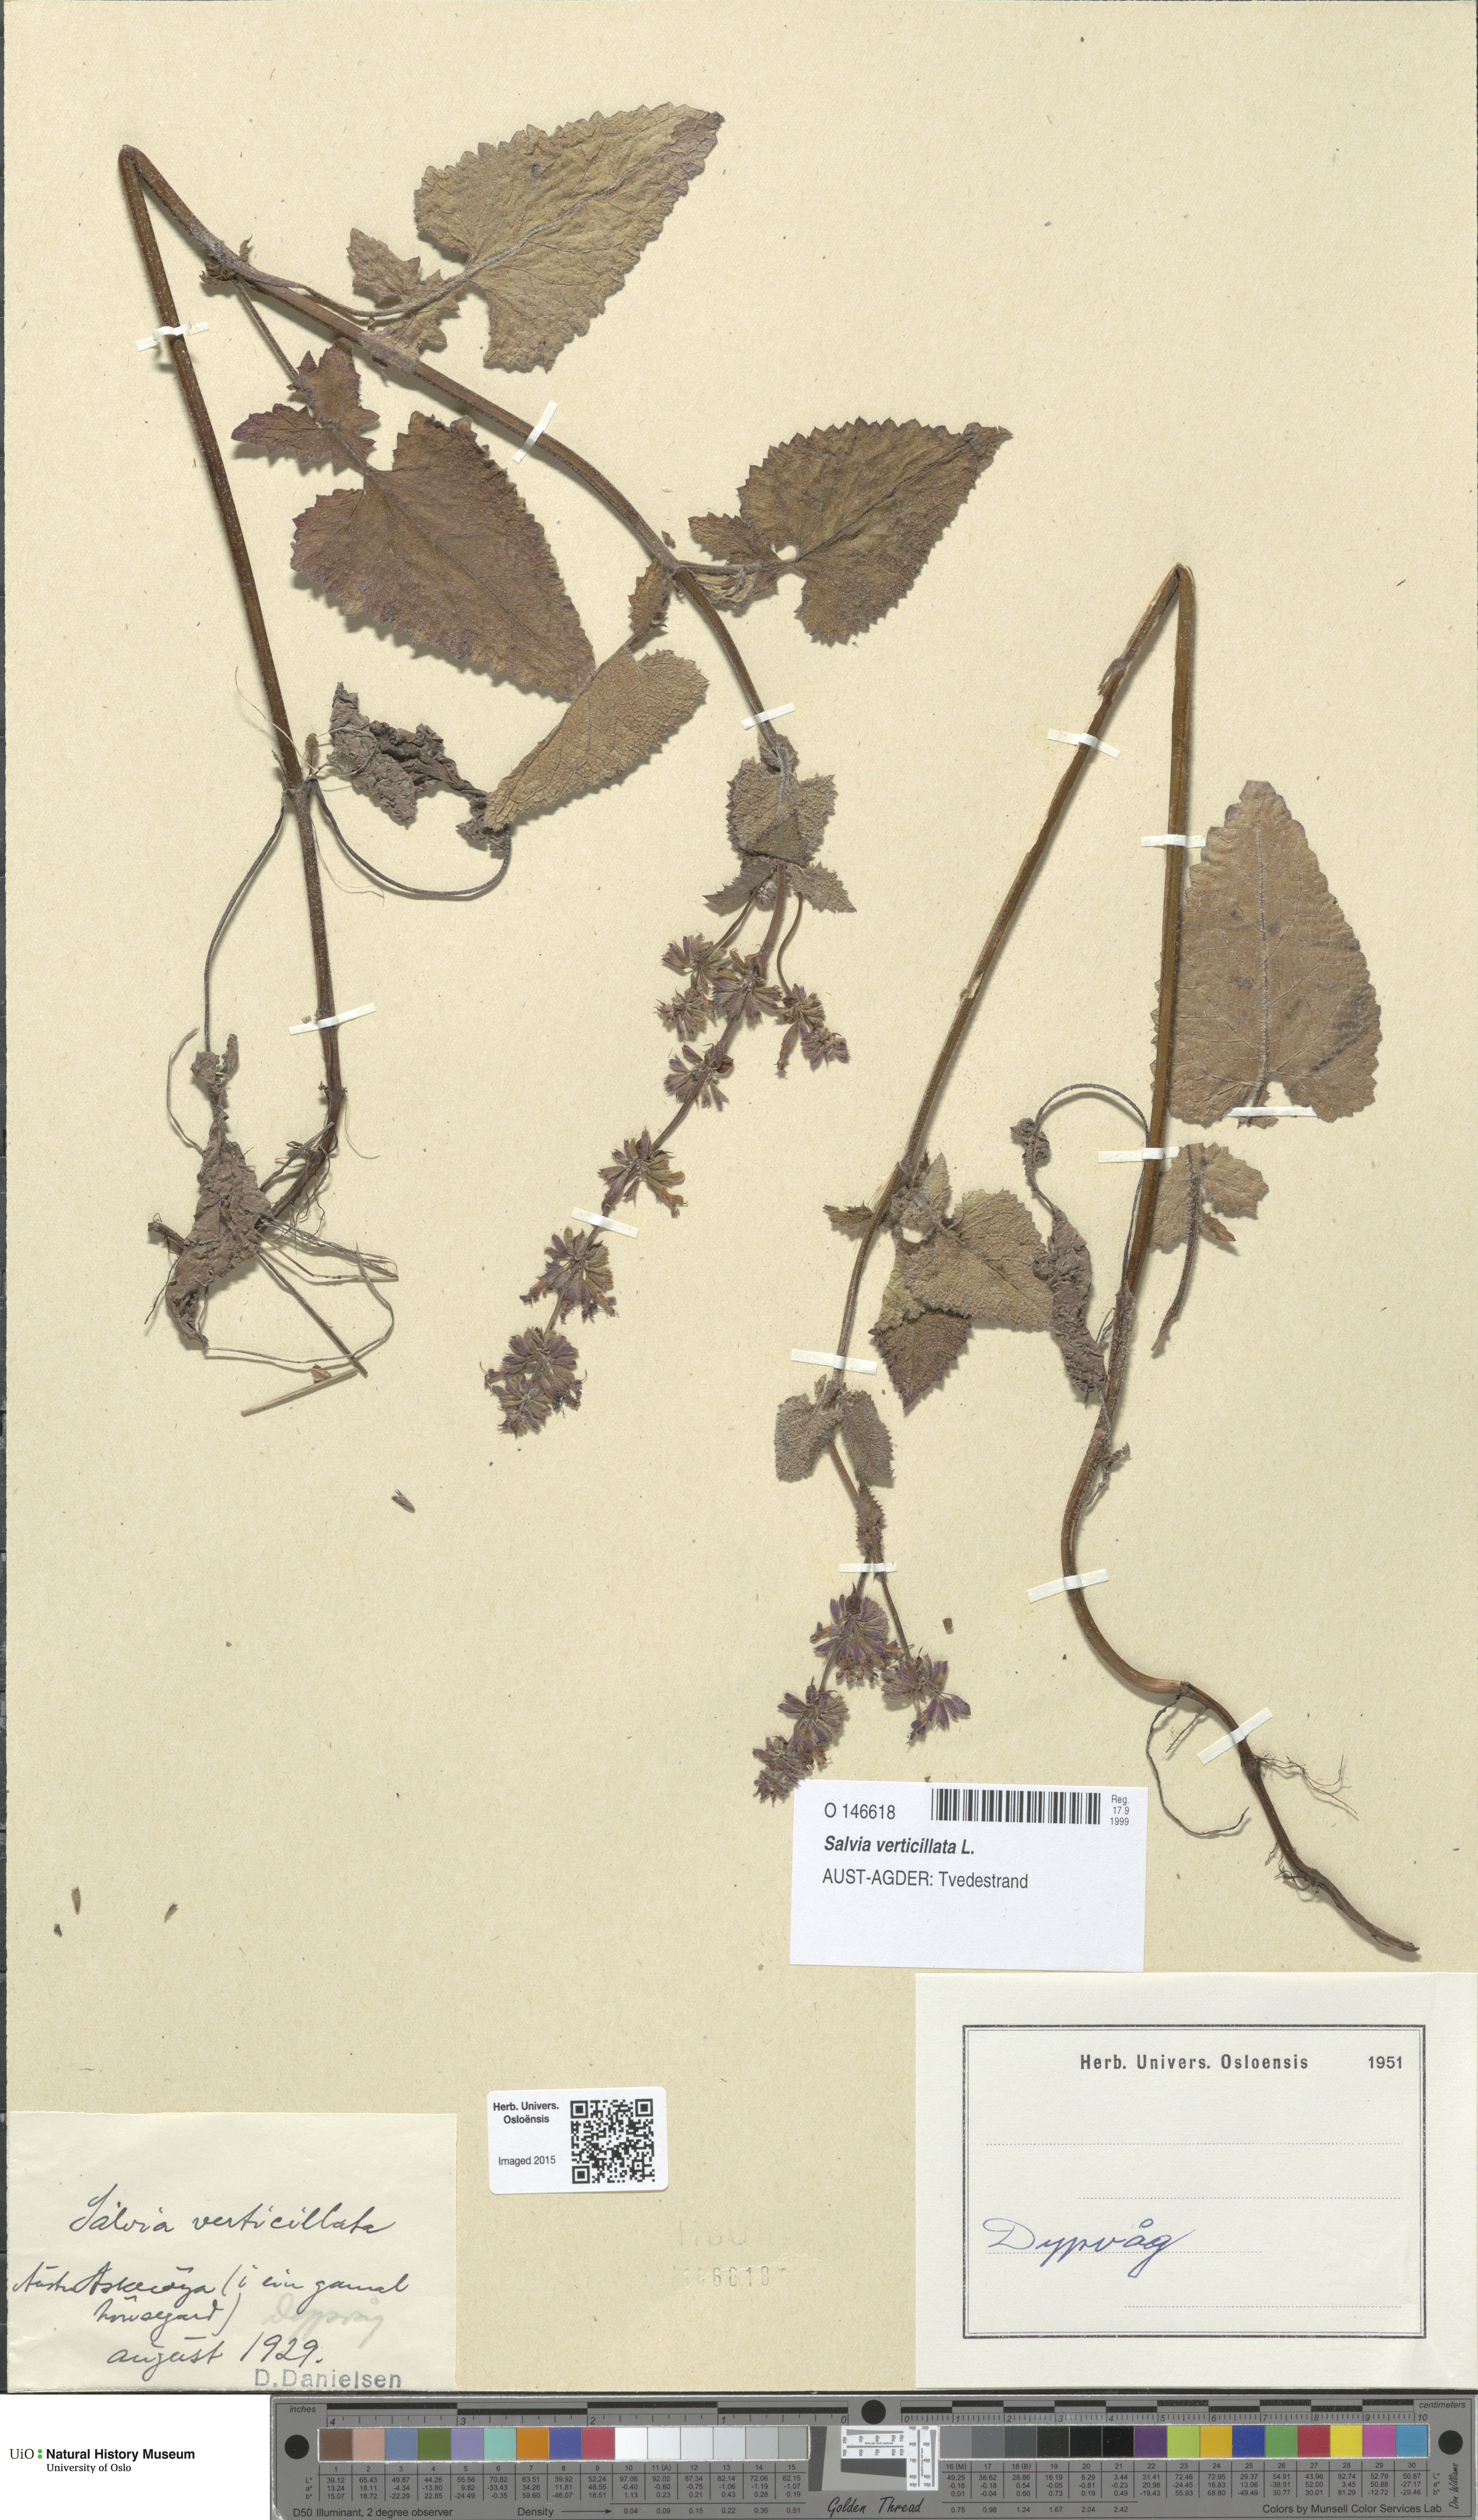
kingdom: Plantae
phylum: Tracheophyta
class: Magnoliopsida
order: Lamiales
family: Lamiaceae
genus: Salvia
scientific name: Salvia verticillata
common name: Whorled clary
